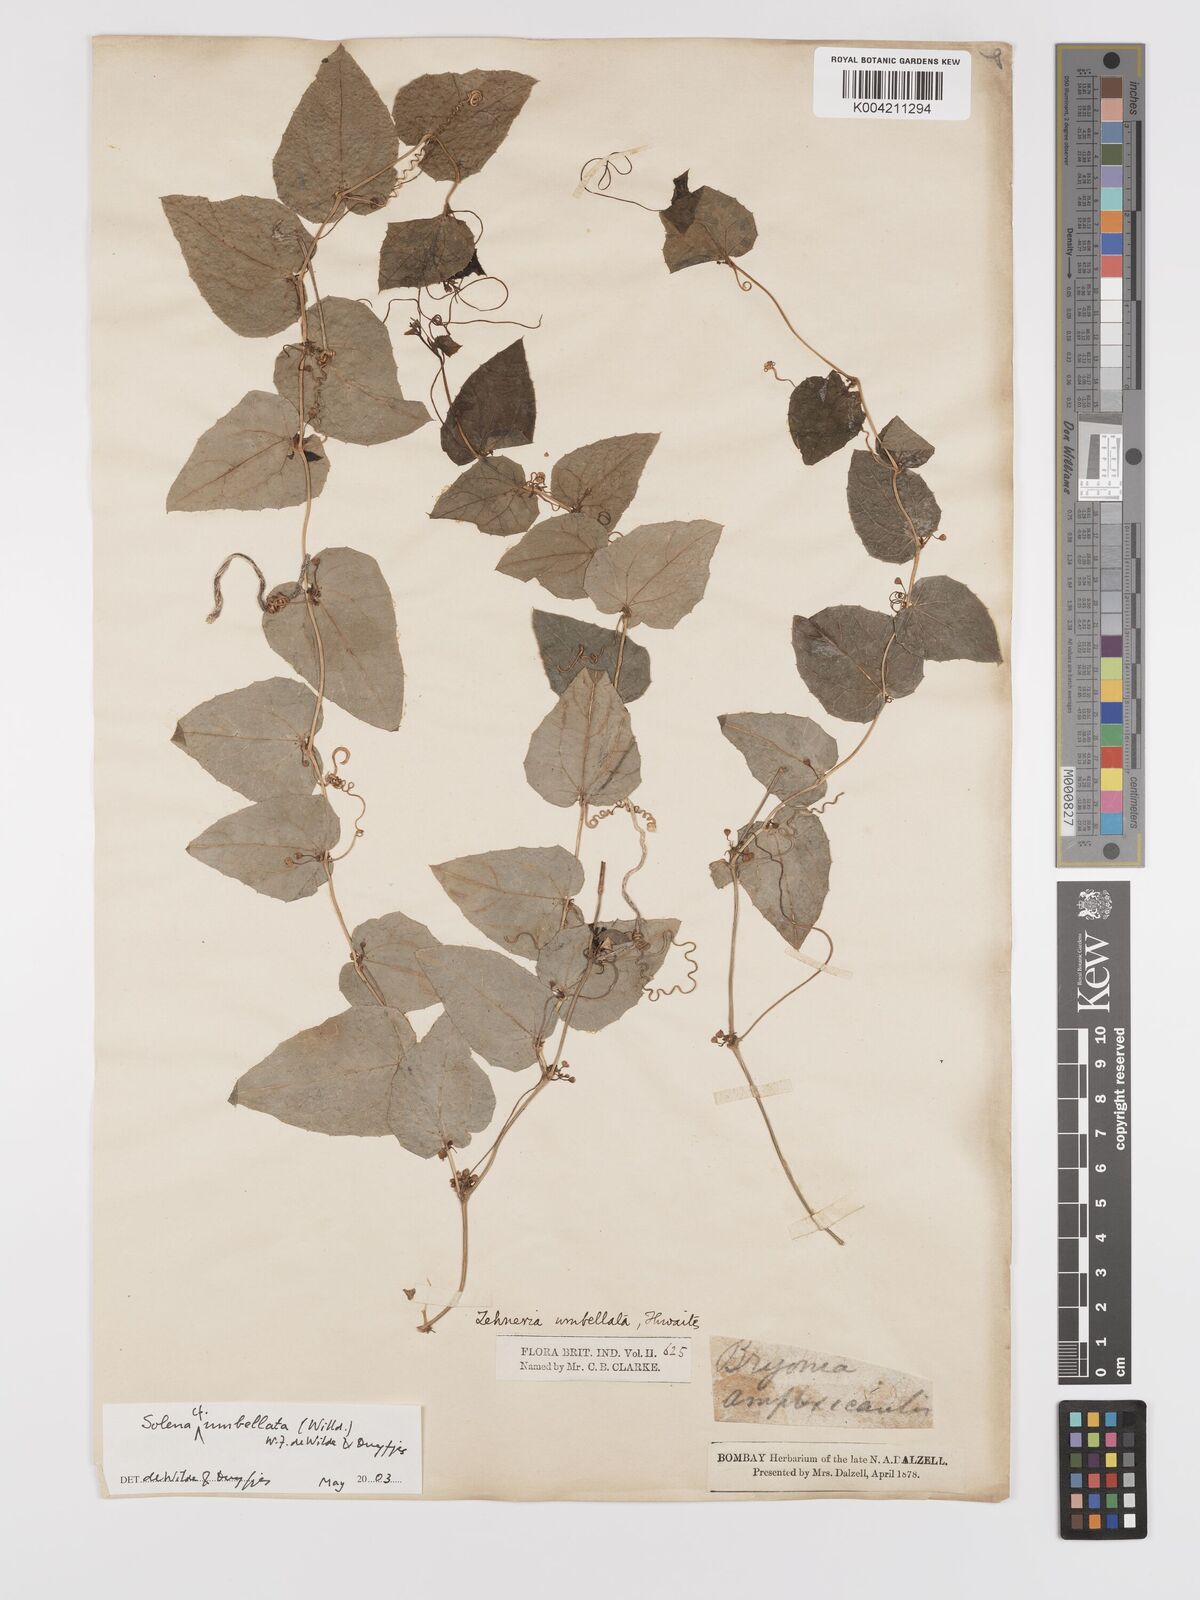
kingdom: Plantae
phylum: Tracheophyta
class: Magnoliopsida
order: Cucurbitales
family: Cucurbitaceae
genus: Solena
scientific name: Solena amplexicaulis
